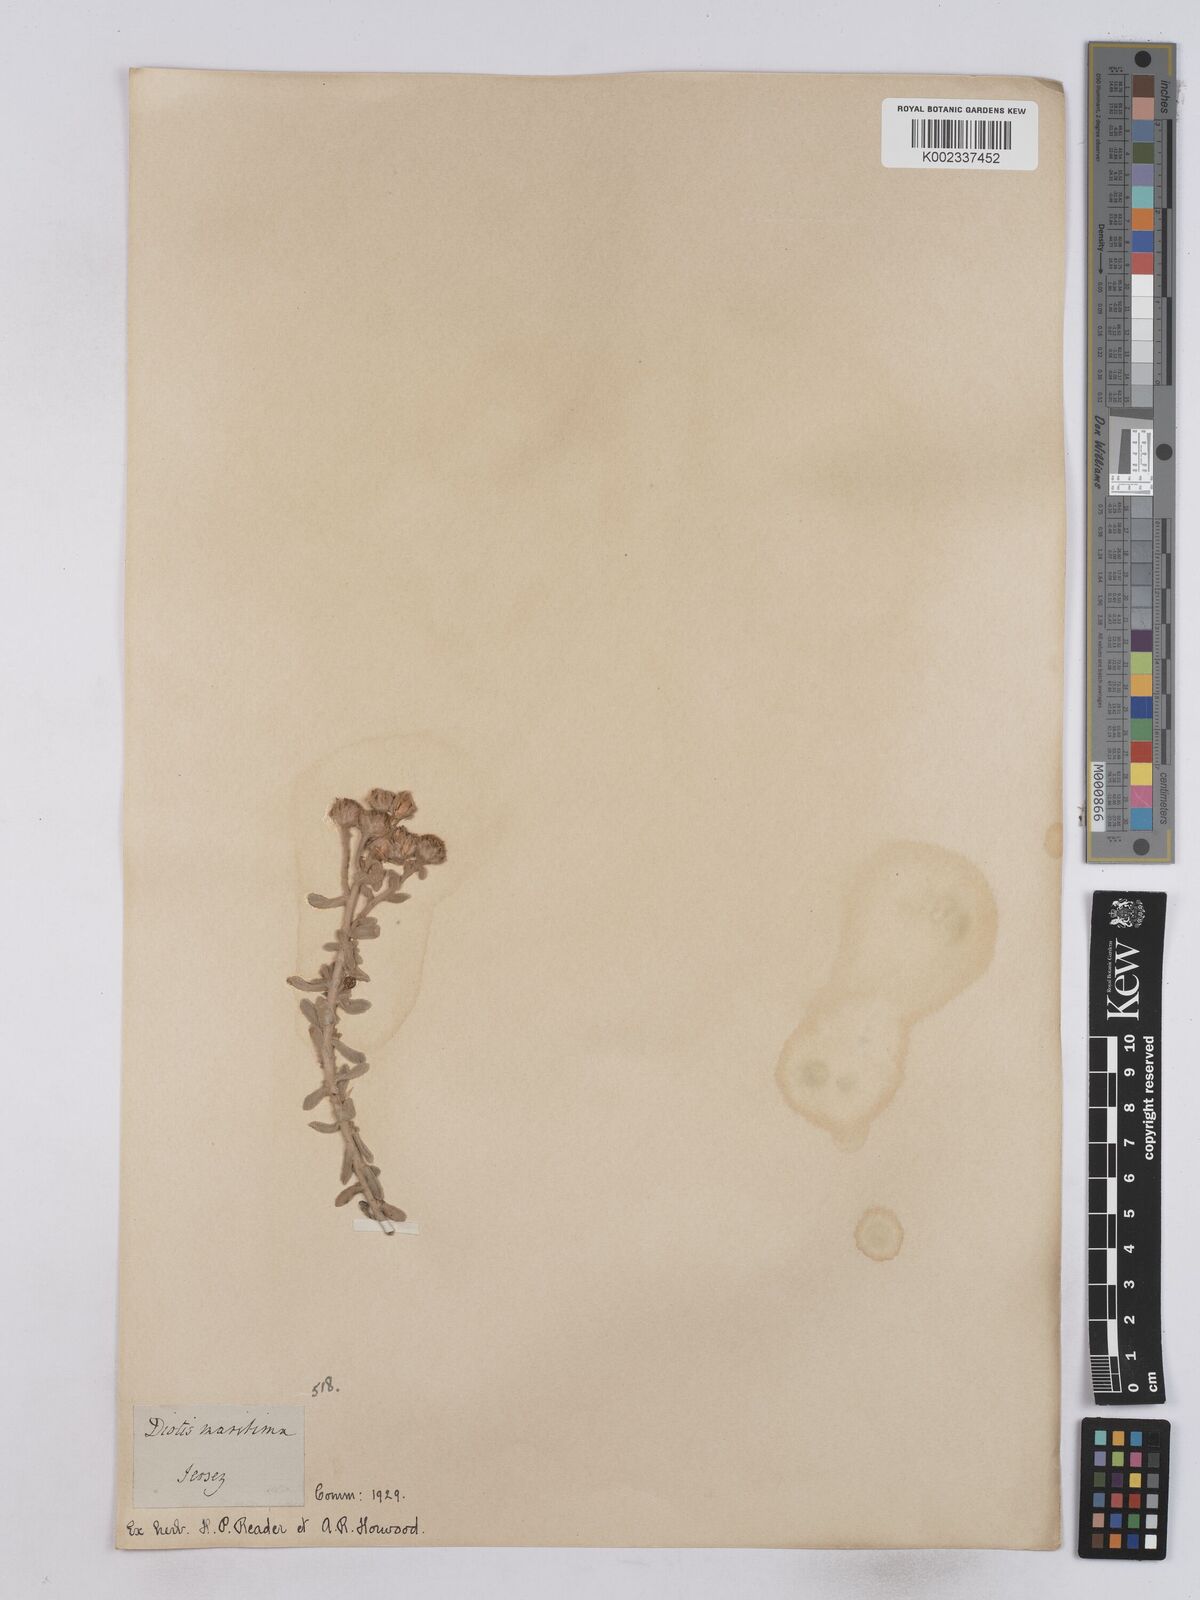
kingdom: Plantae
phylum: Tracheophyta
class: Magnoliopsida
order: Asterales
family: Asteraceae
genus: Achillea
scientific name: Achillea maritima
